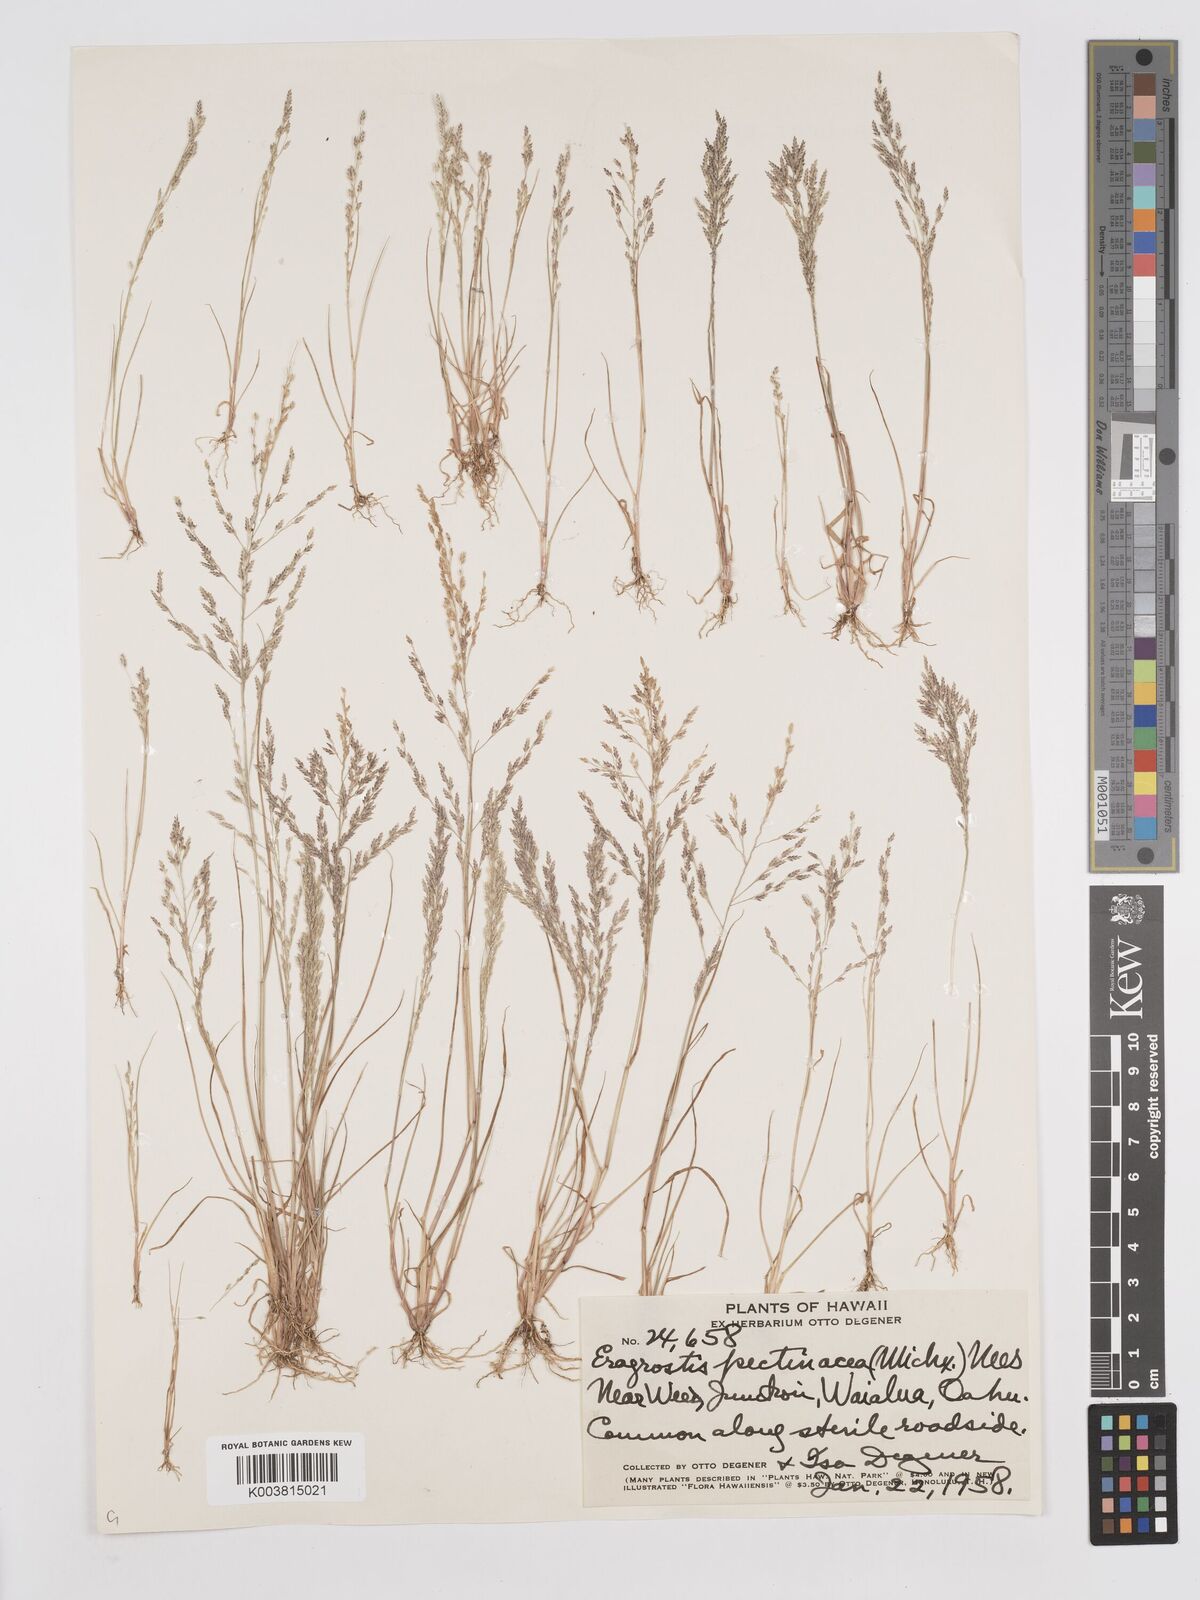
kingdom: Plantae
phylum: Tracheophyta
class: Liliopsida
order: Poales
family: Poaceae
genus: Eragrostis
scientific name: Eragrostis pectinacea
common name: Tufted lovegrass
